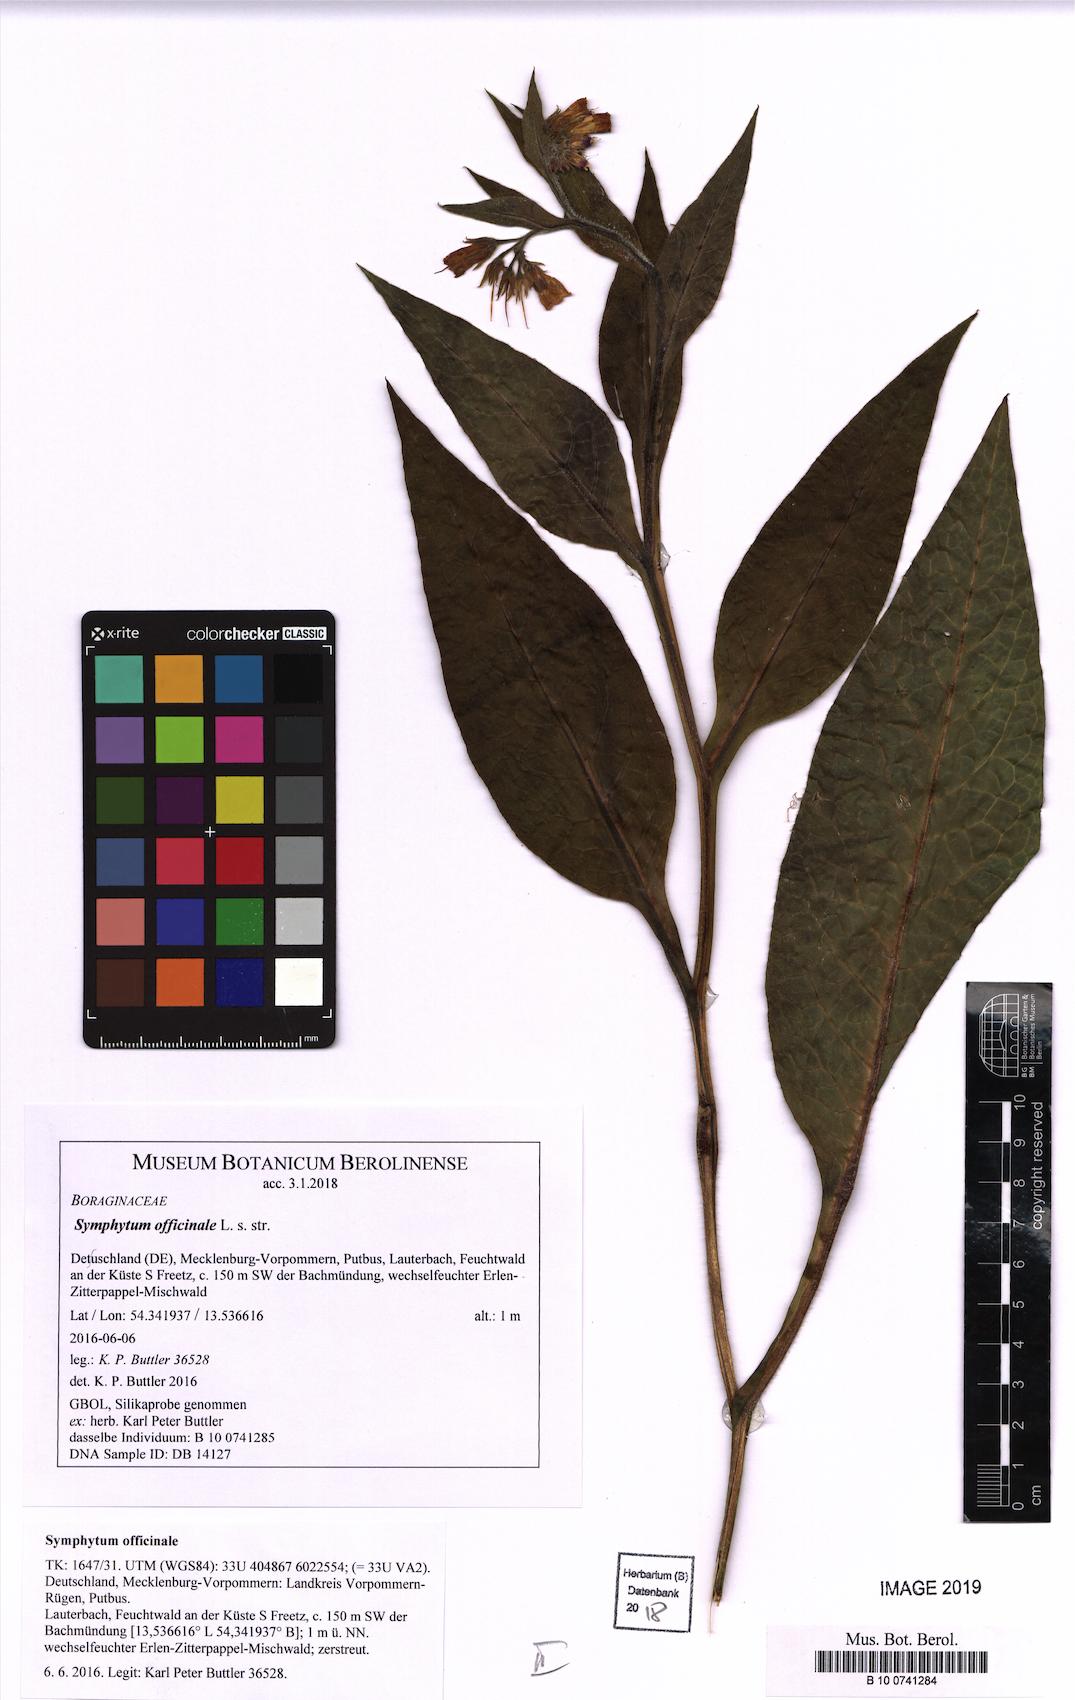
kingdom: Plantae
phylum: Tracheophyta
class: Magnoliopsida
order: Boraginales
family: Boraginaceae
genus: Symphytum
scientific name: Symphytum officinale
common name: Common comfrey
